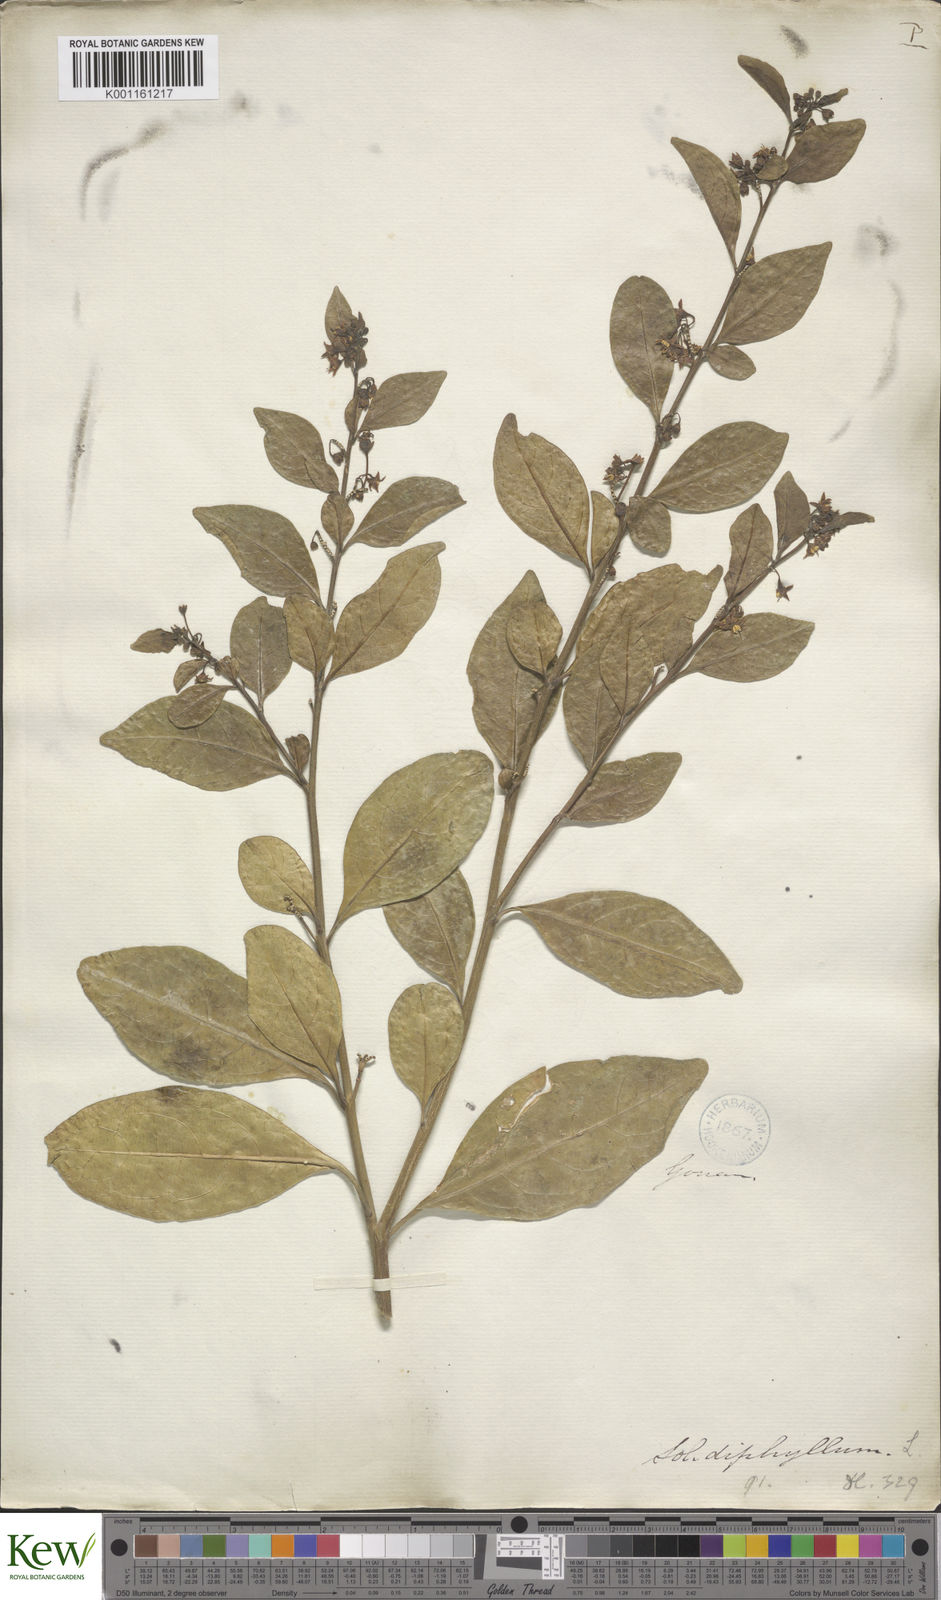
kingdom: Plantae
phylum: Tracheophyta
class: Magnoliopsida
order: Solanales
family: Solanaceae
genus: Solanum
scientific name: Solanum diphyllum
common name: Twoleaf nightshade
